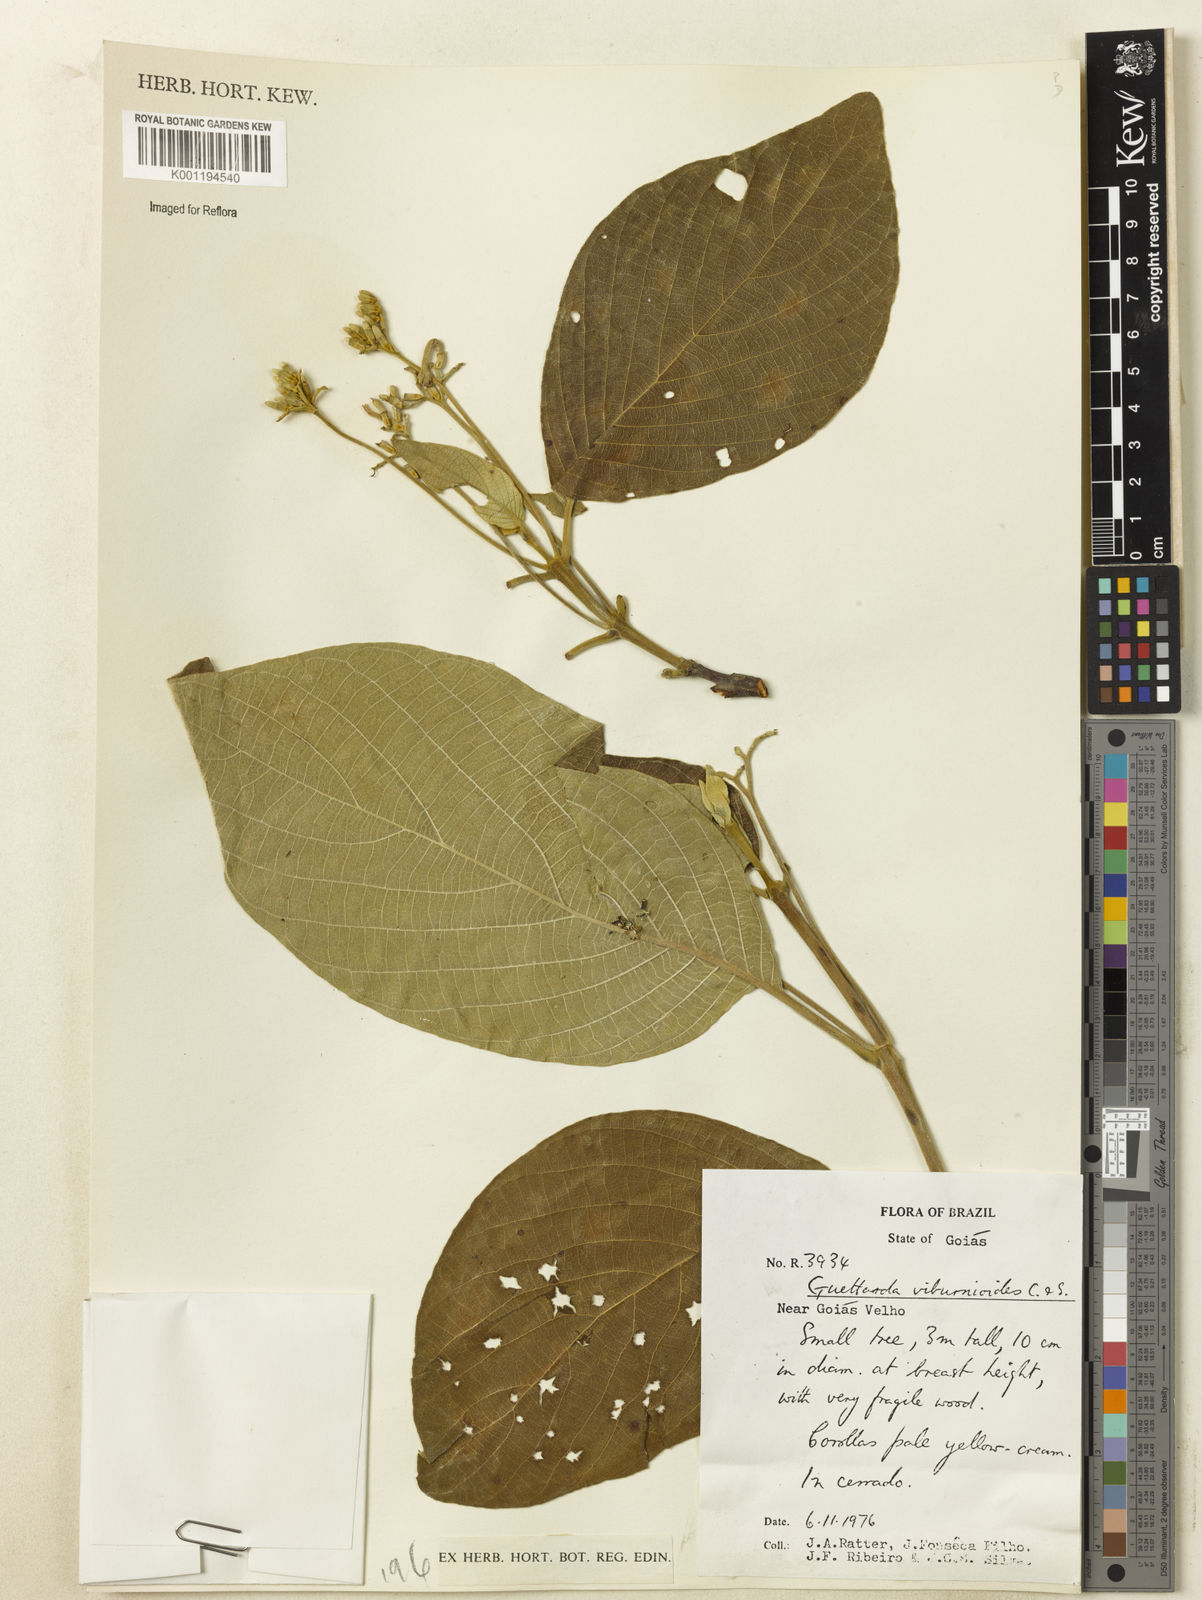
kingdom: Plantae
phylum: Tracheophyta
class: Magnoliopsida
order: Gentianales
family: Rubiaceae
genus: Guettarda
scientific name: Guettarda viburnoides
